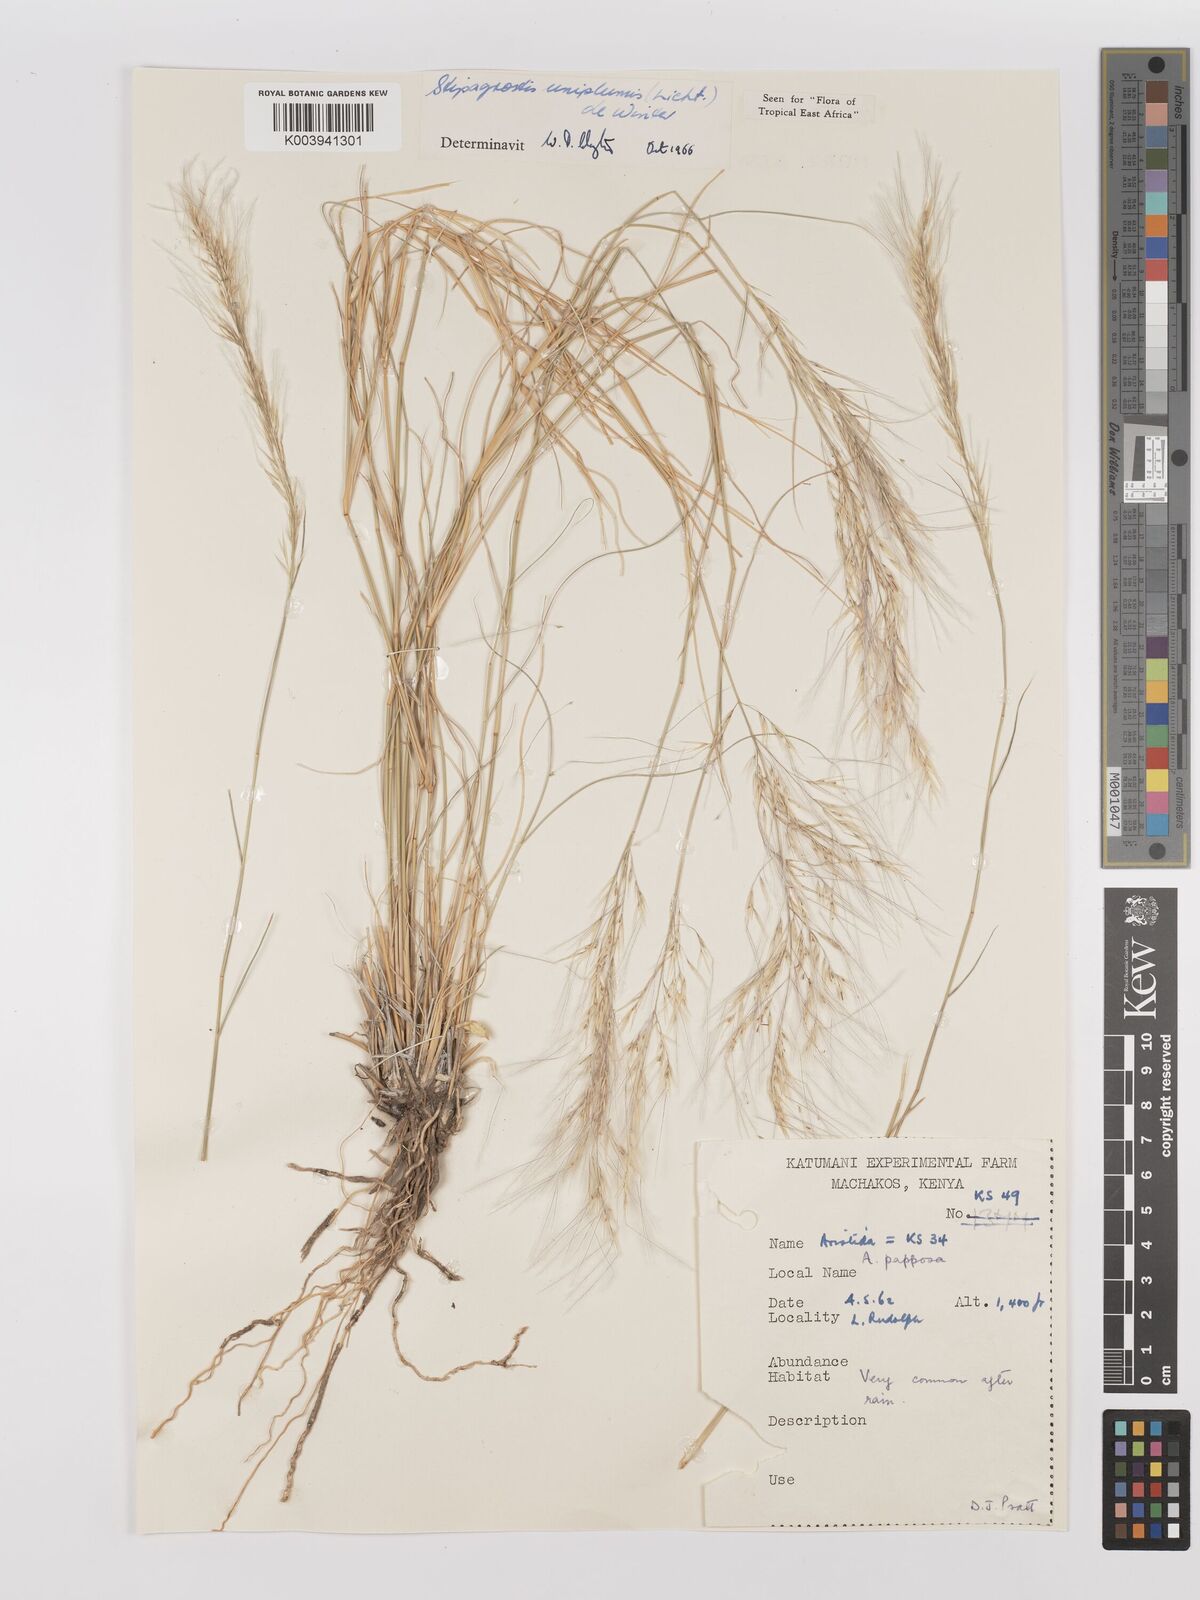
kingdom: Plantae
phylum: Tracheophyta
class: Liliopsida
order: Poales
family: Poaceae
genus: Stipagrostis
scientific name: Stipagrostis uniplumis
